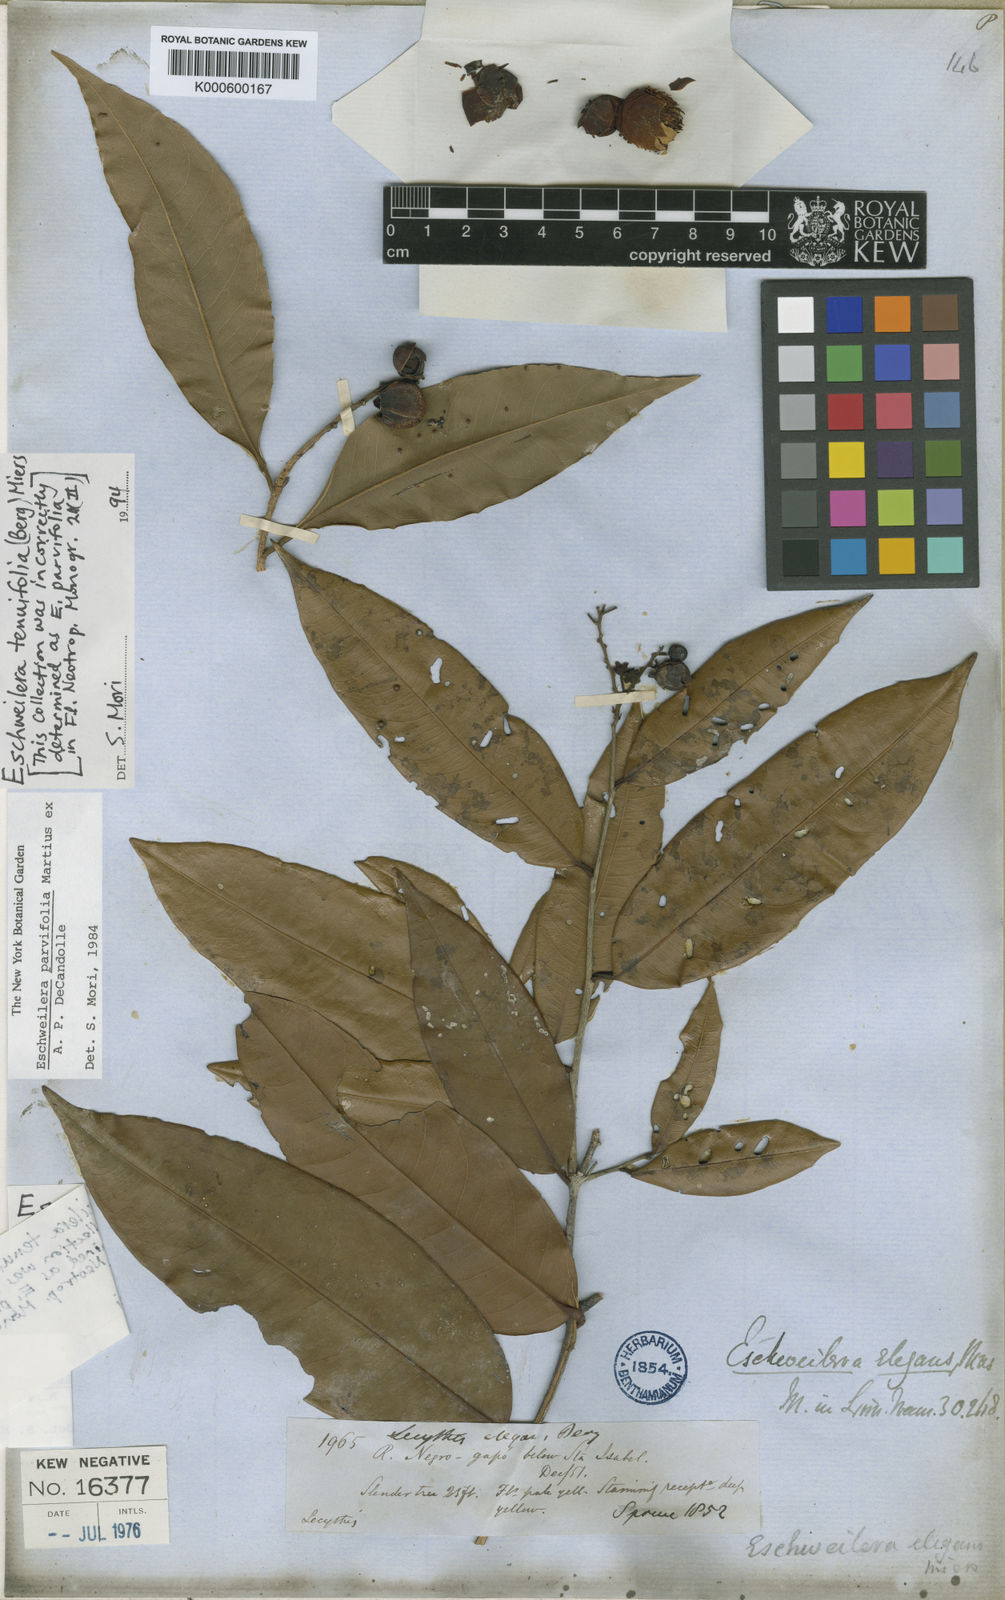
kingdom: Plantae
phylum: Tracheophyta
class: Magnoliopsida
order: Ericales
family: Lecythidaceae
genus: Eschweilera
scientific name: Eschweilera tenuifolia
